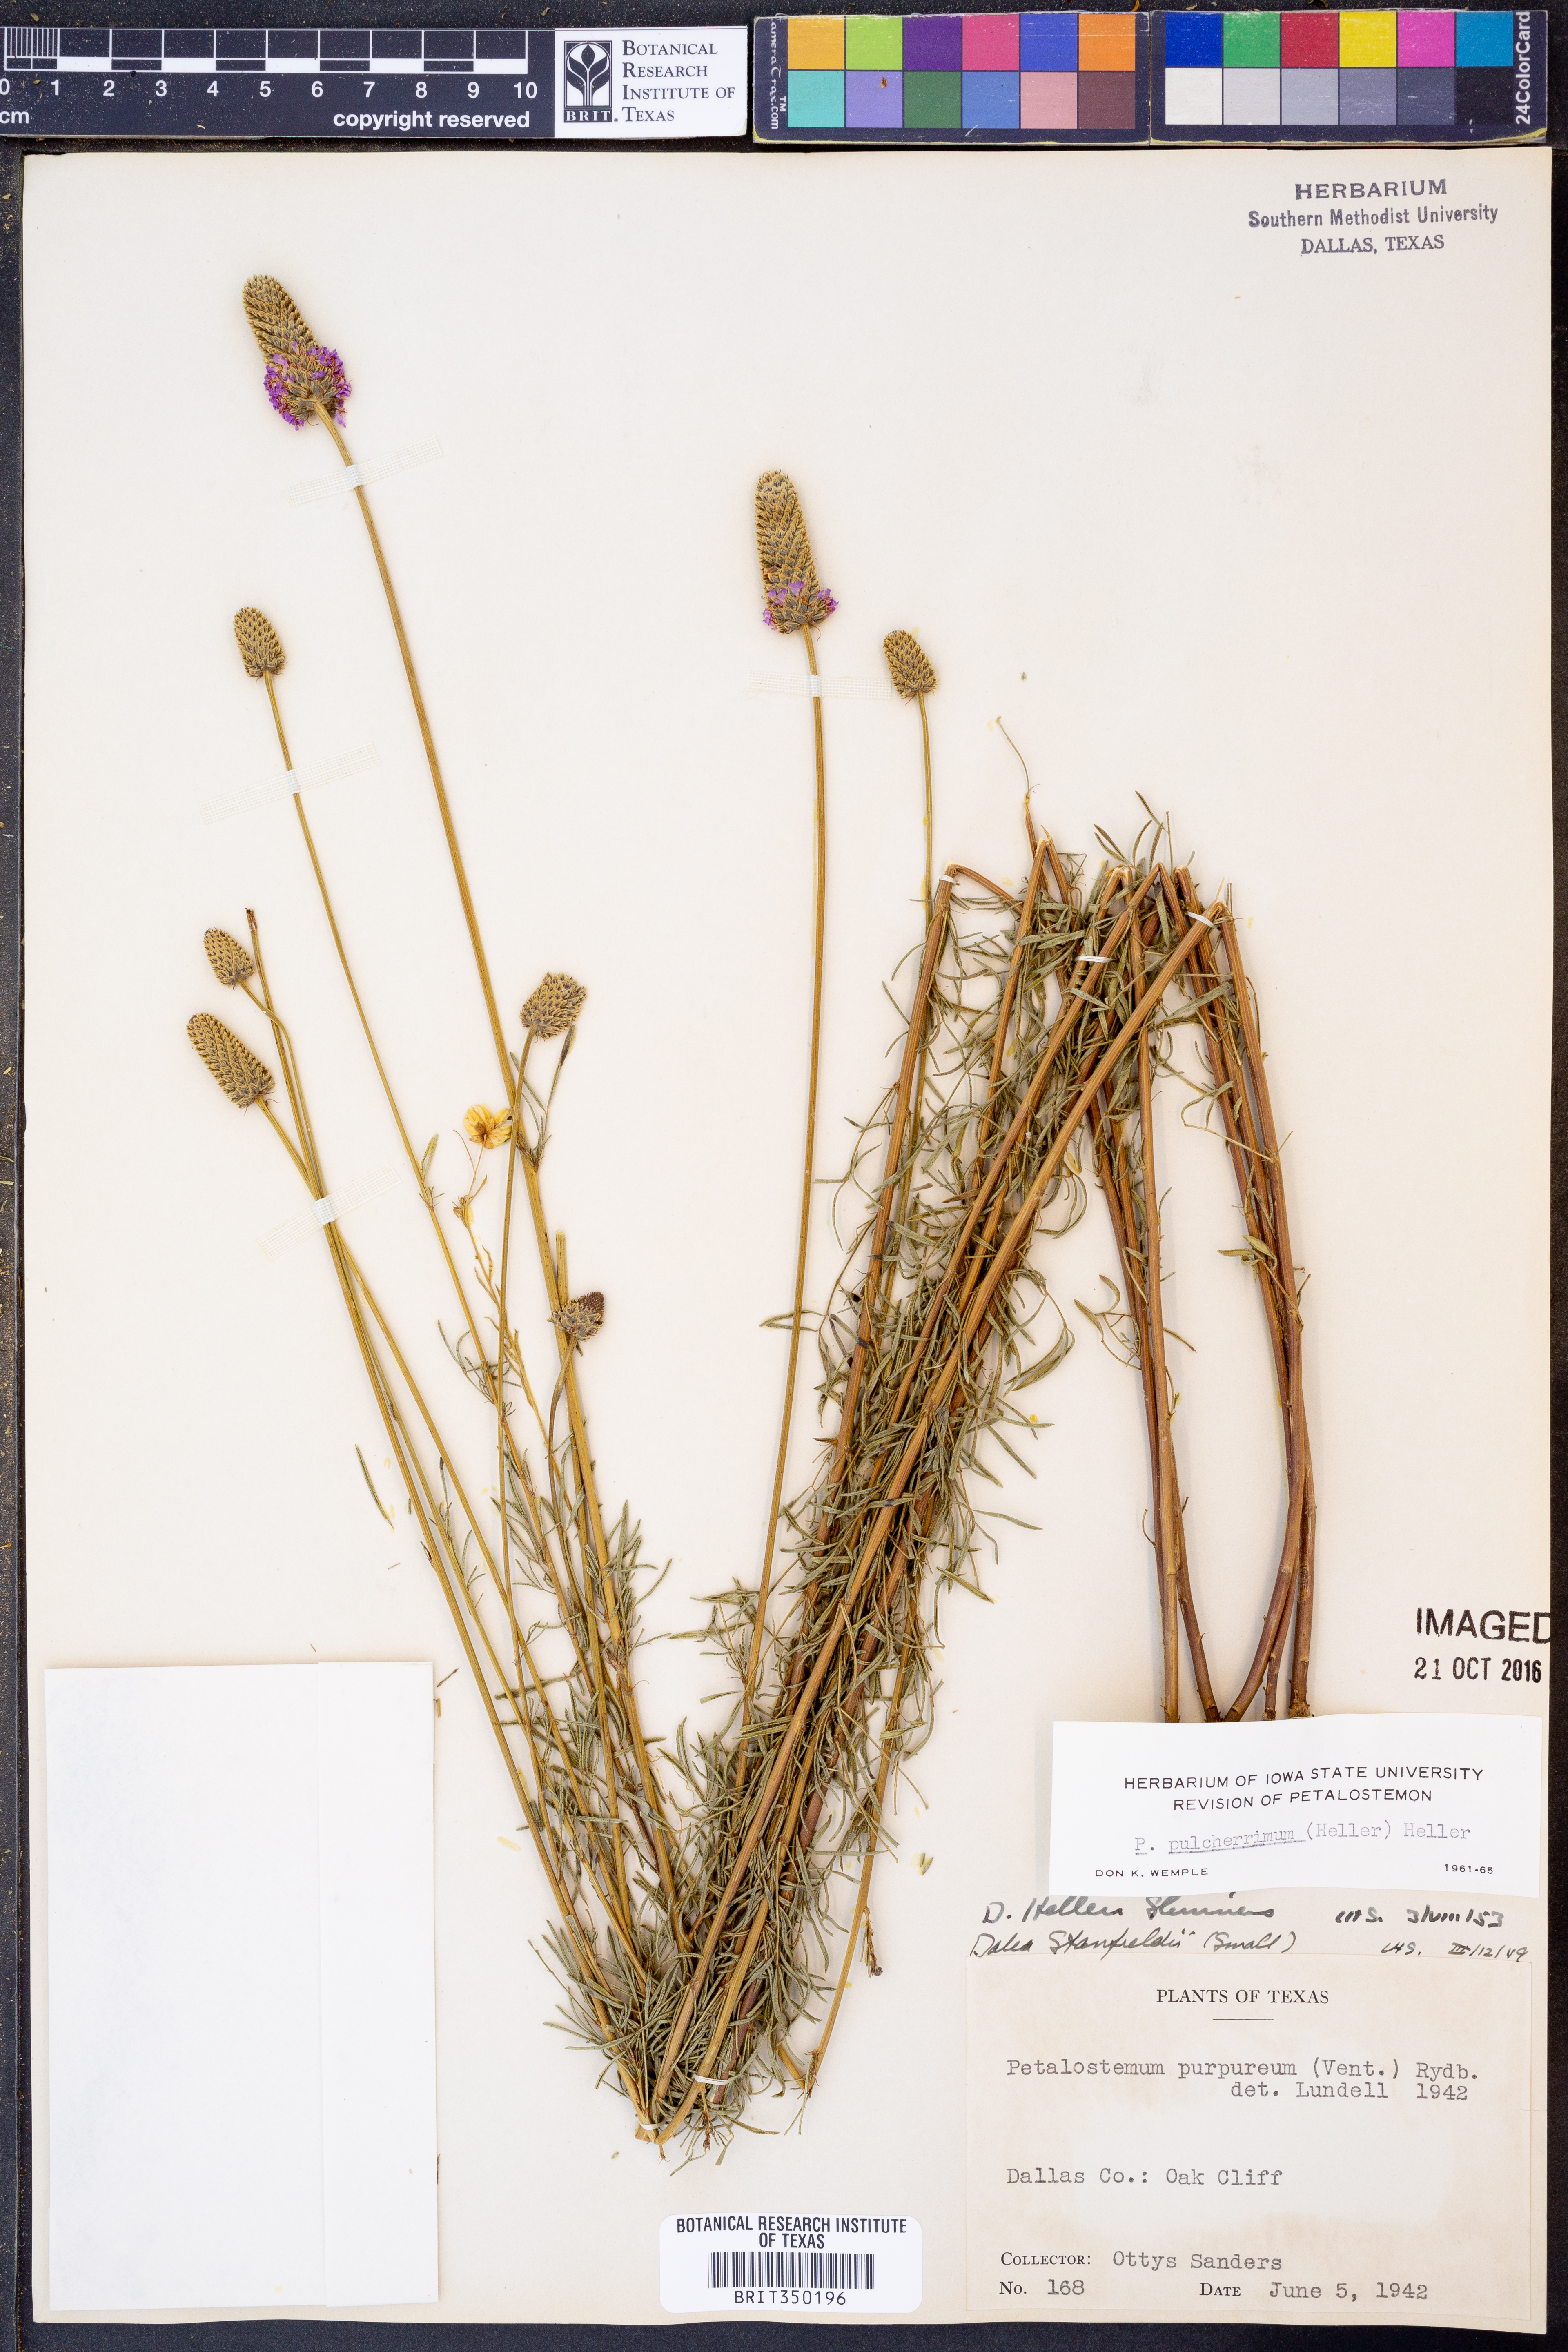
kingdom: Plantae
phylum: Tracheophyta
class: Magnoliopsida
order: Fabales
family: Fabaceae
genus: Dalea
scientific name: Dalea compacta
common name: Compact prairie-clover
